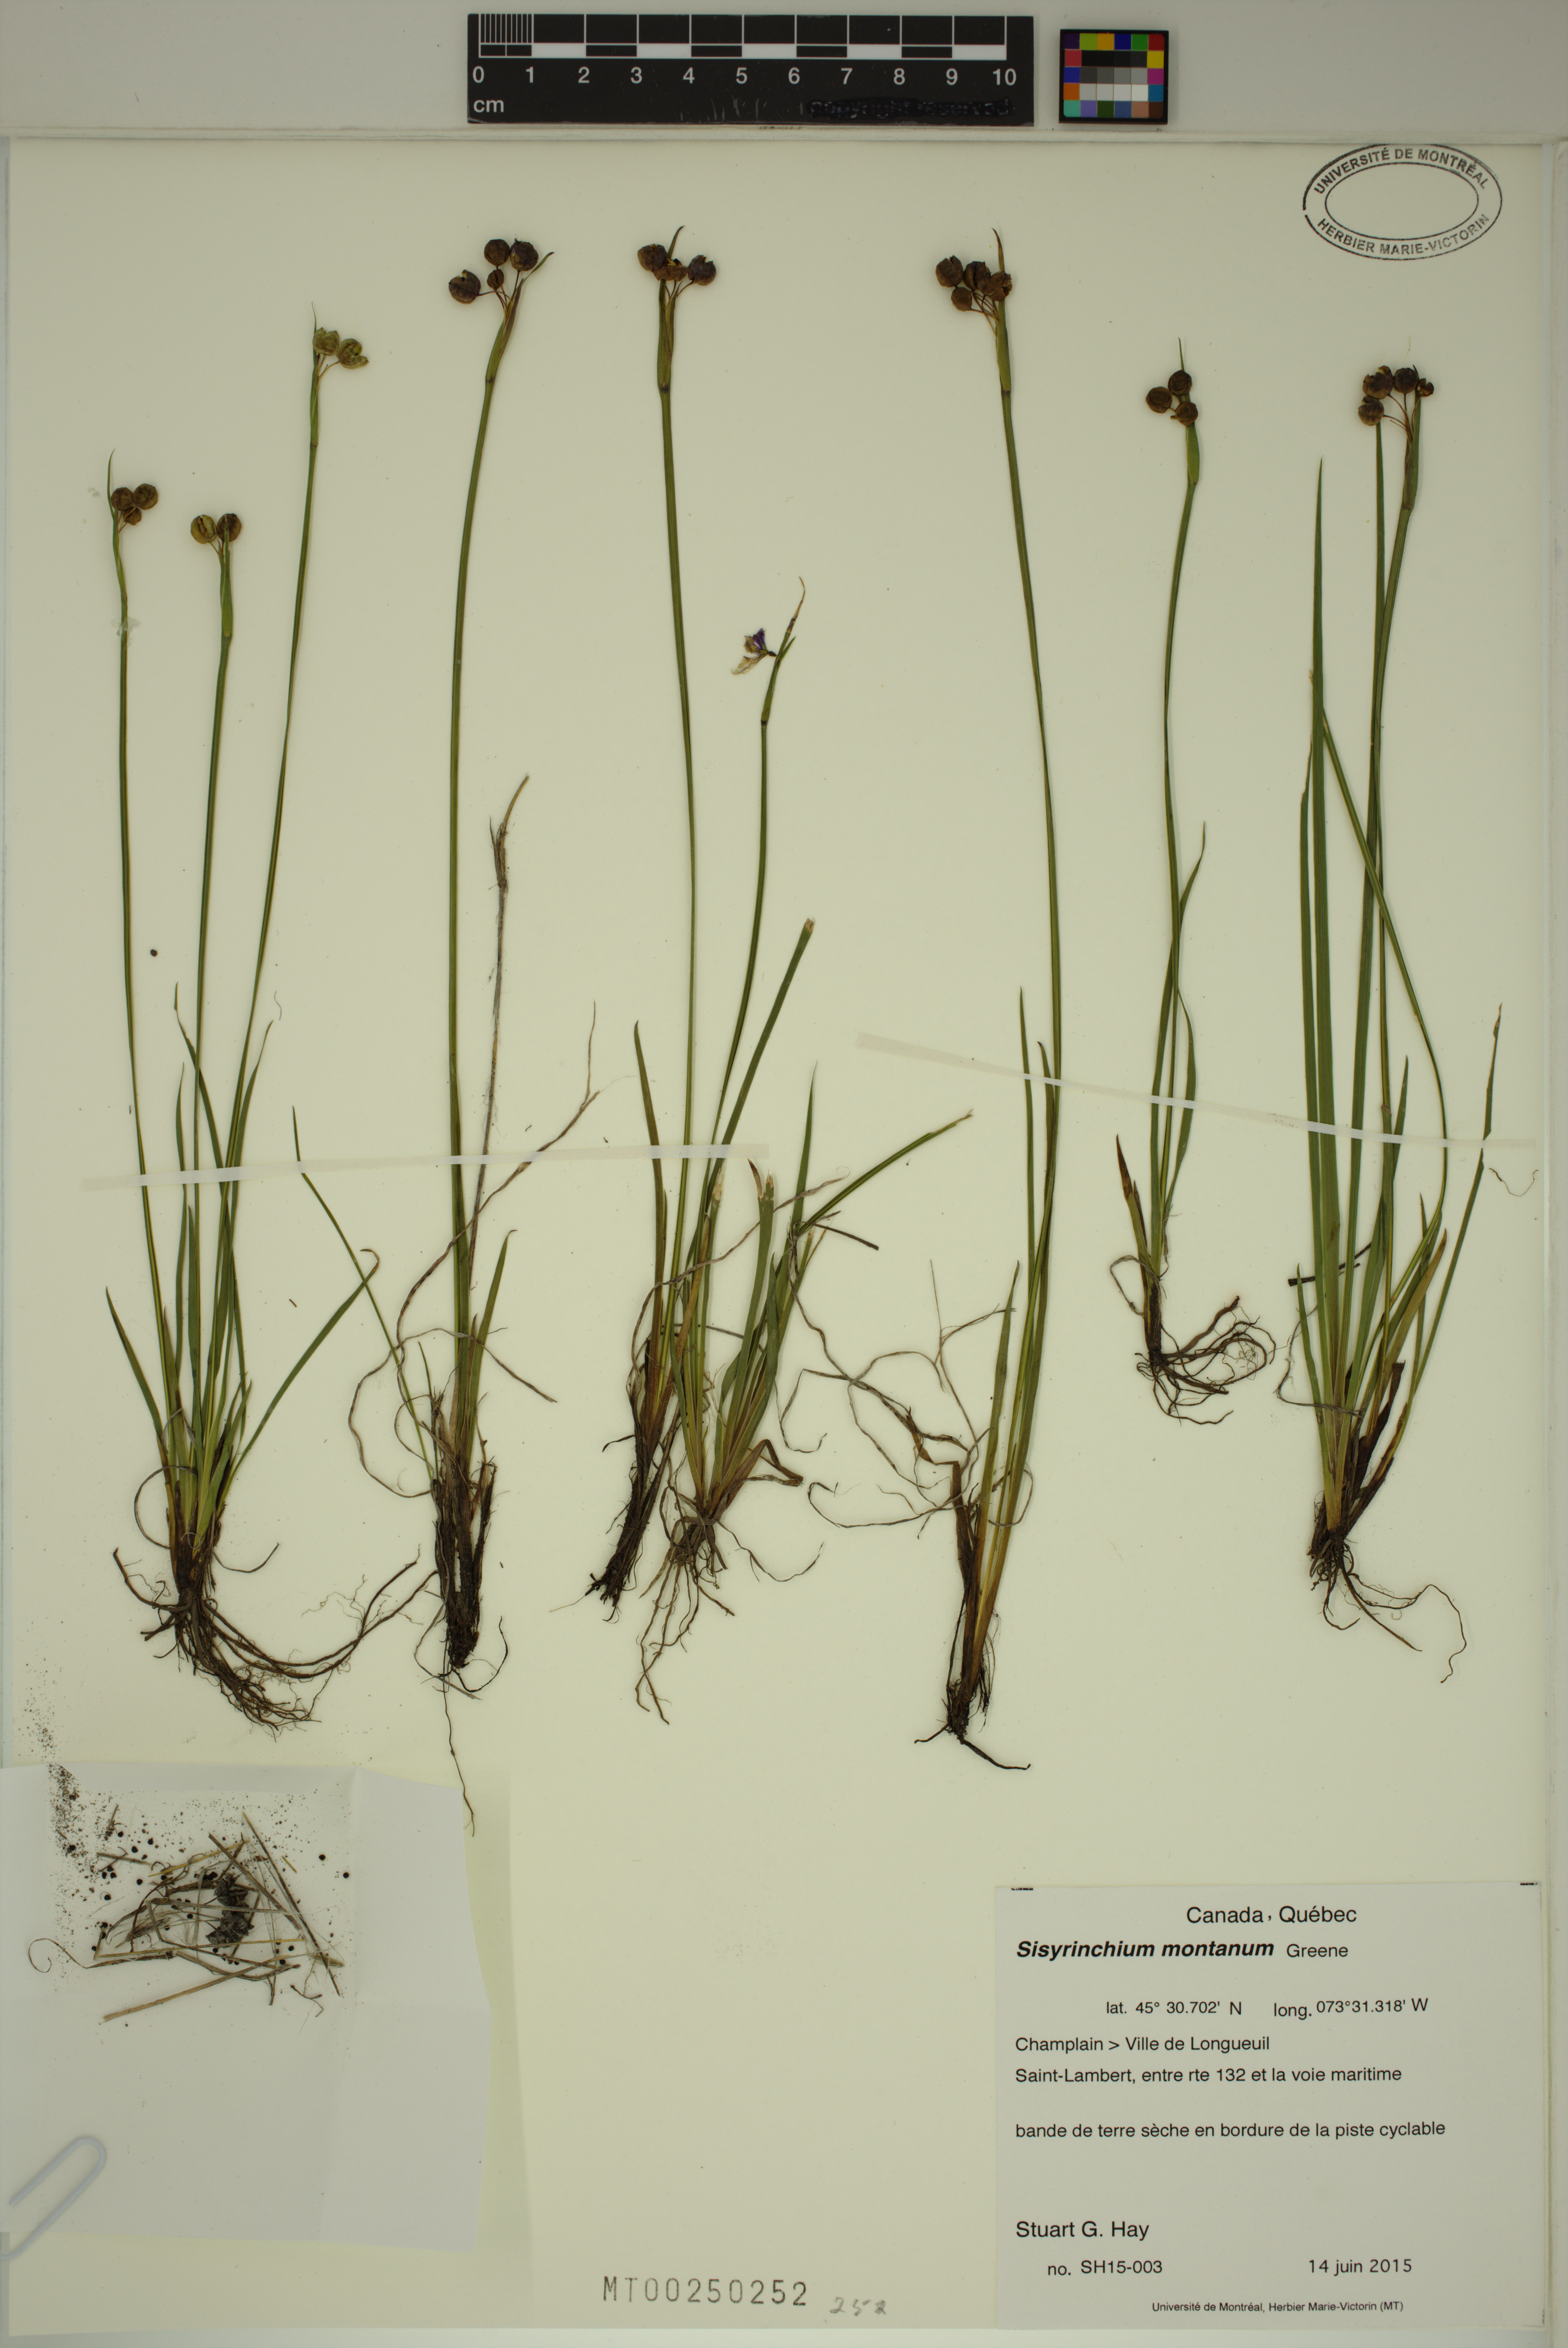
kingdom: Plantae
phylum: Tracheophyta
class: Liliopsida
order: Asparagales
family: Iridaceae
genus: Sisyrinchium
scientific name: Sisyrinchium montanum
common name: American blue-eyed-grass
